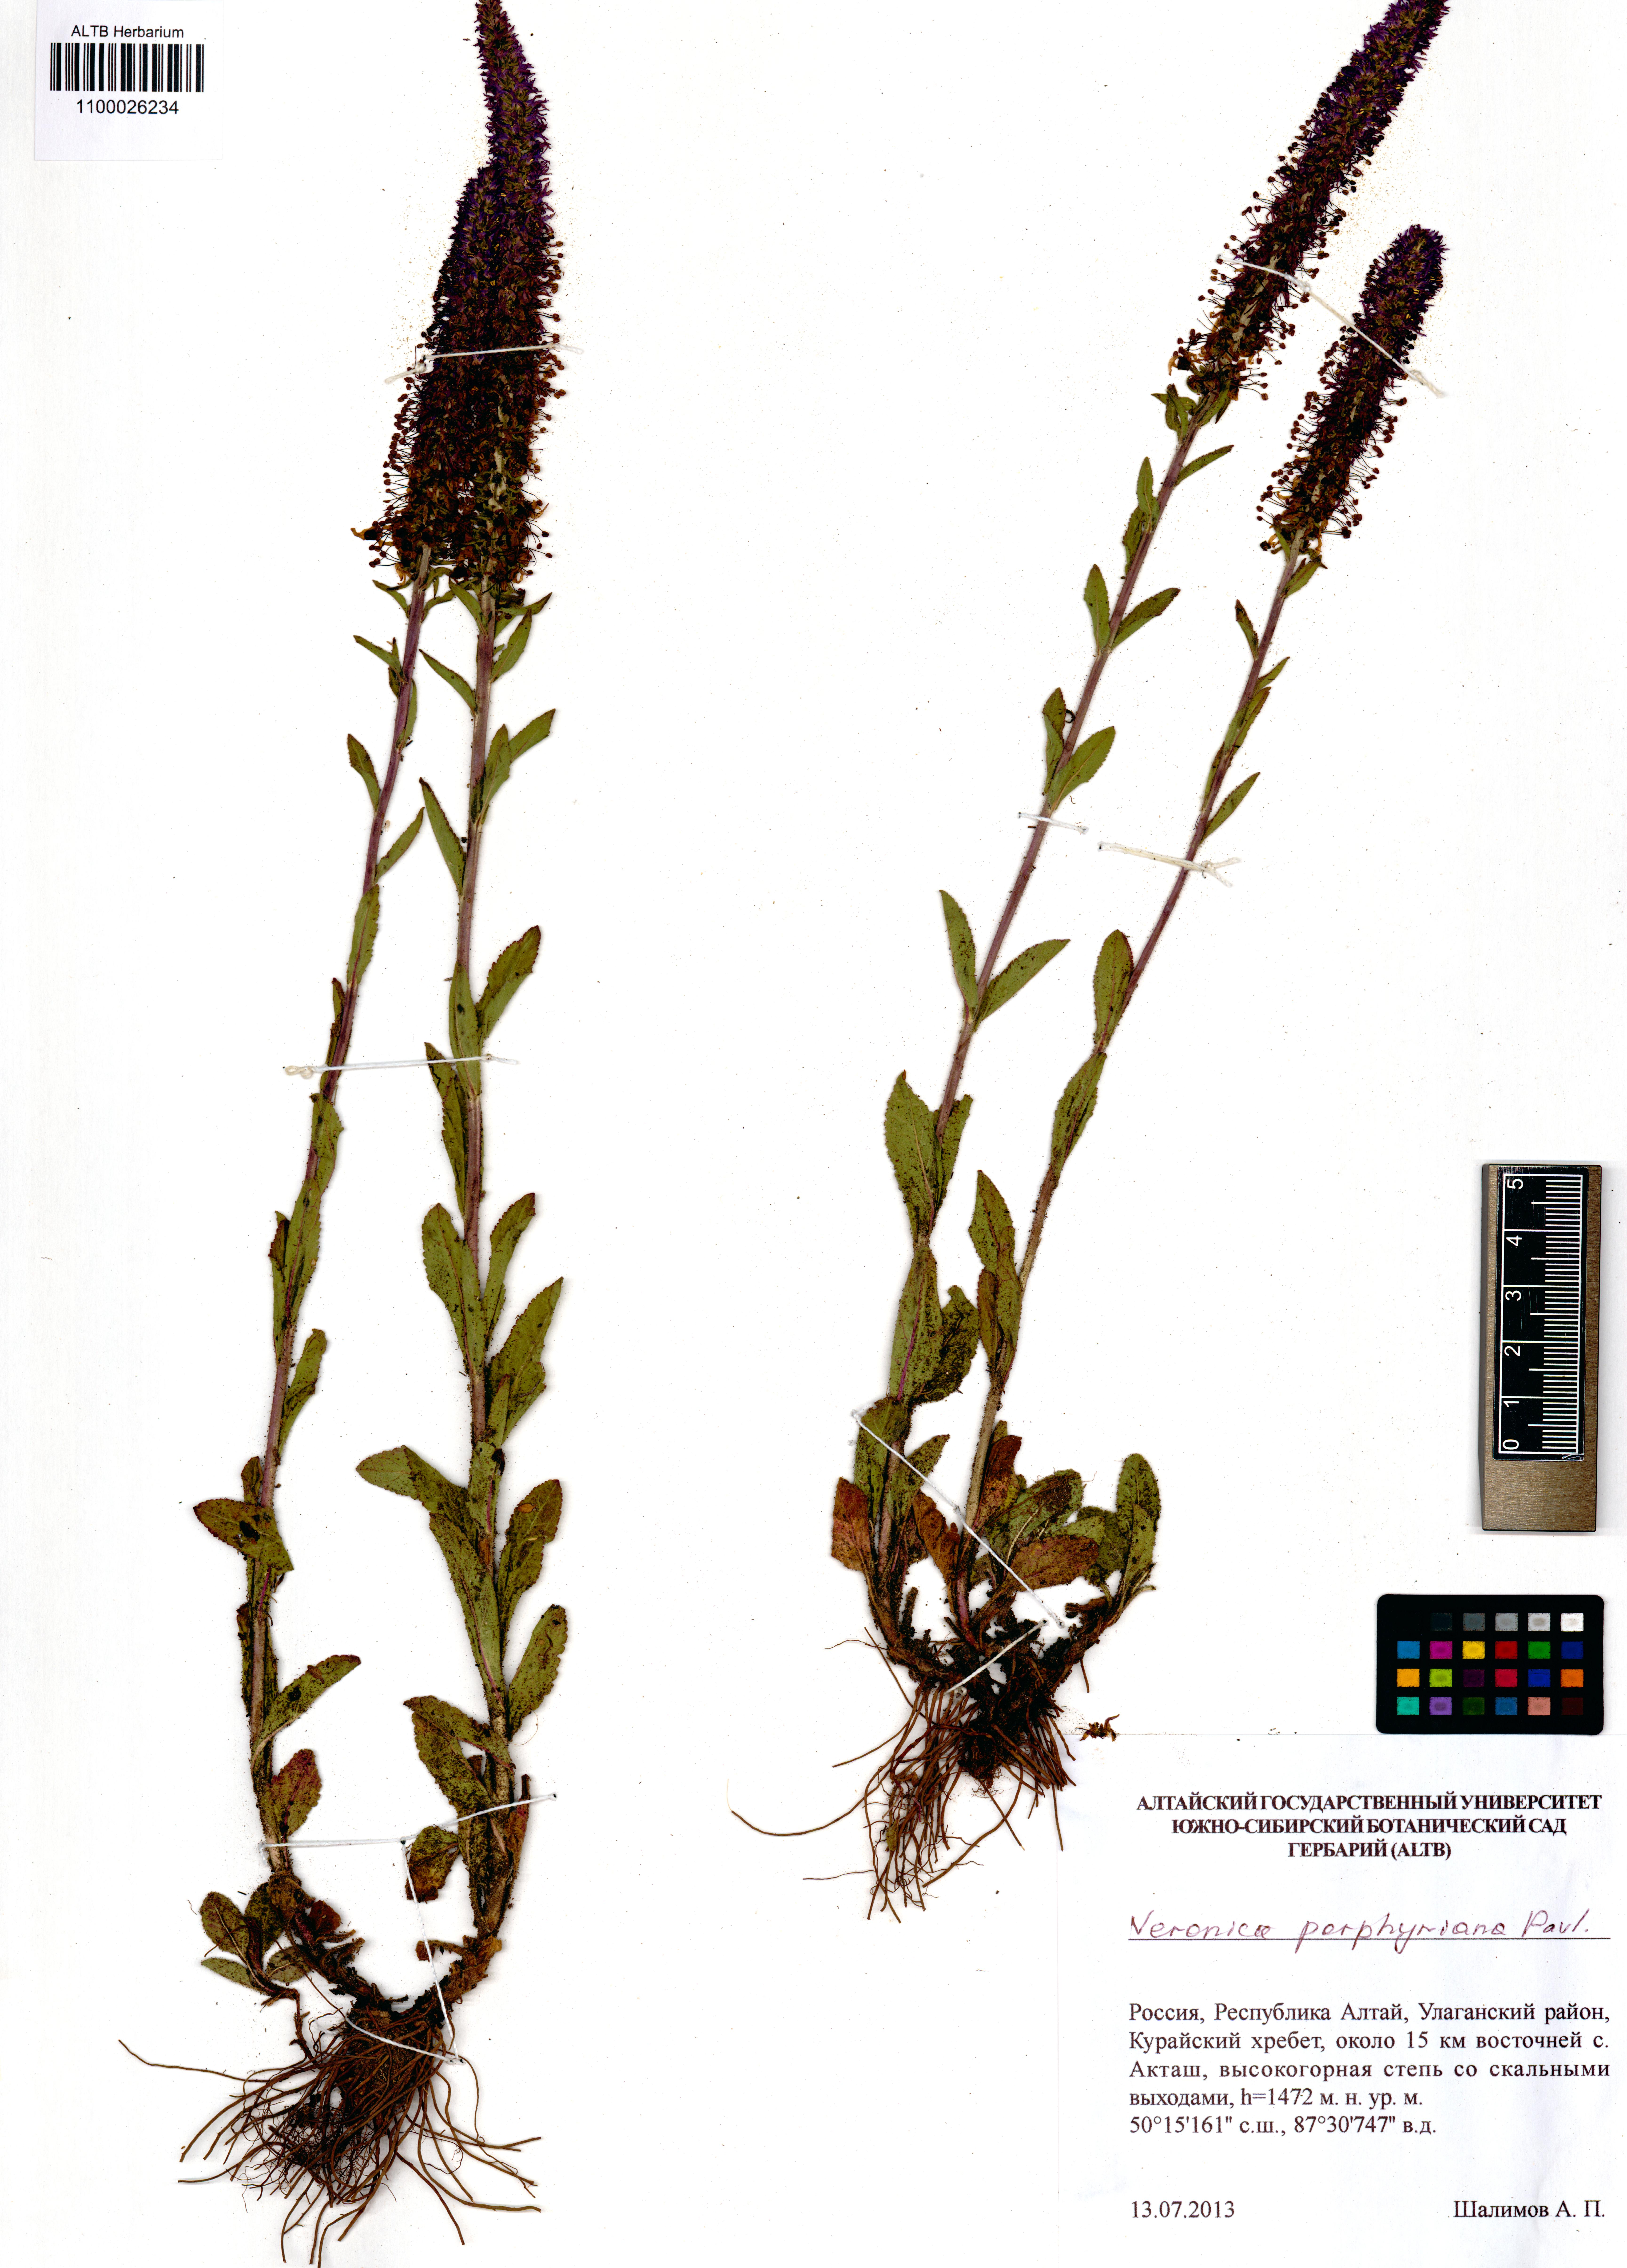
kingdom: Plantae
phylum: Tracheophyta
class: Magnoliopsida
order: Lamiales
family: Plantaginaceae
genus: Veronica
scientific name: Veronica porphyriana
